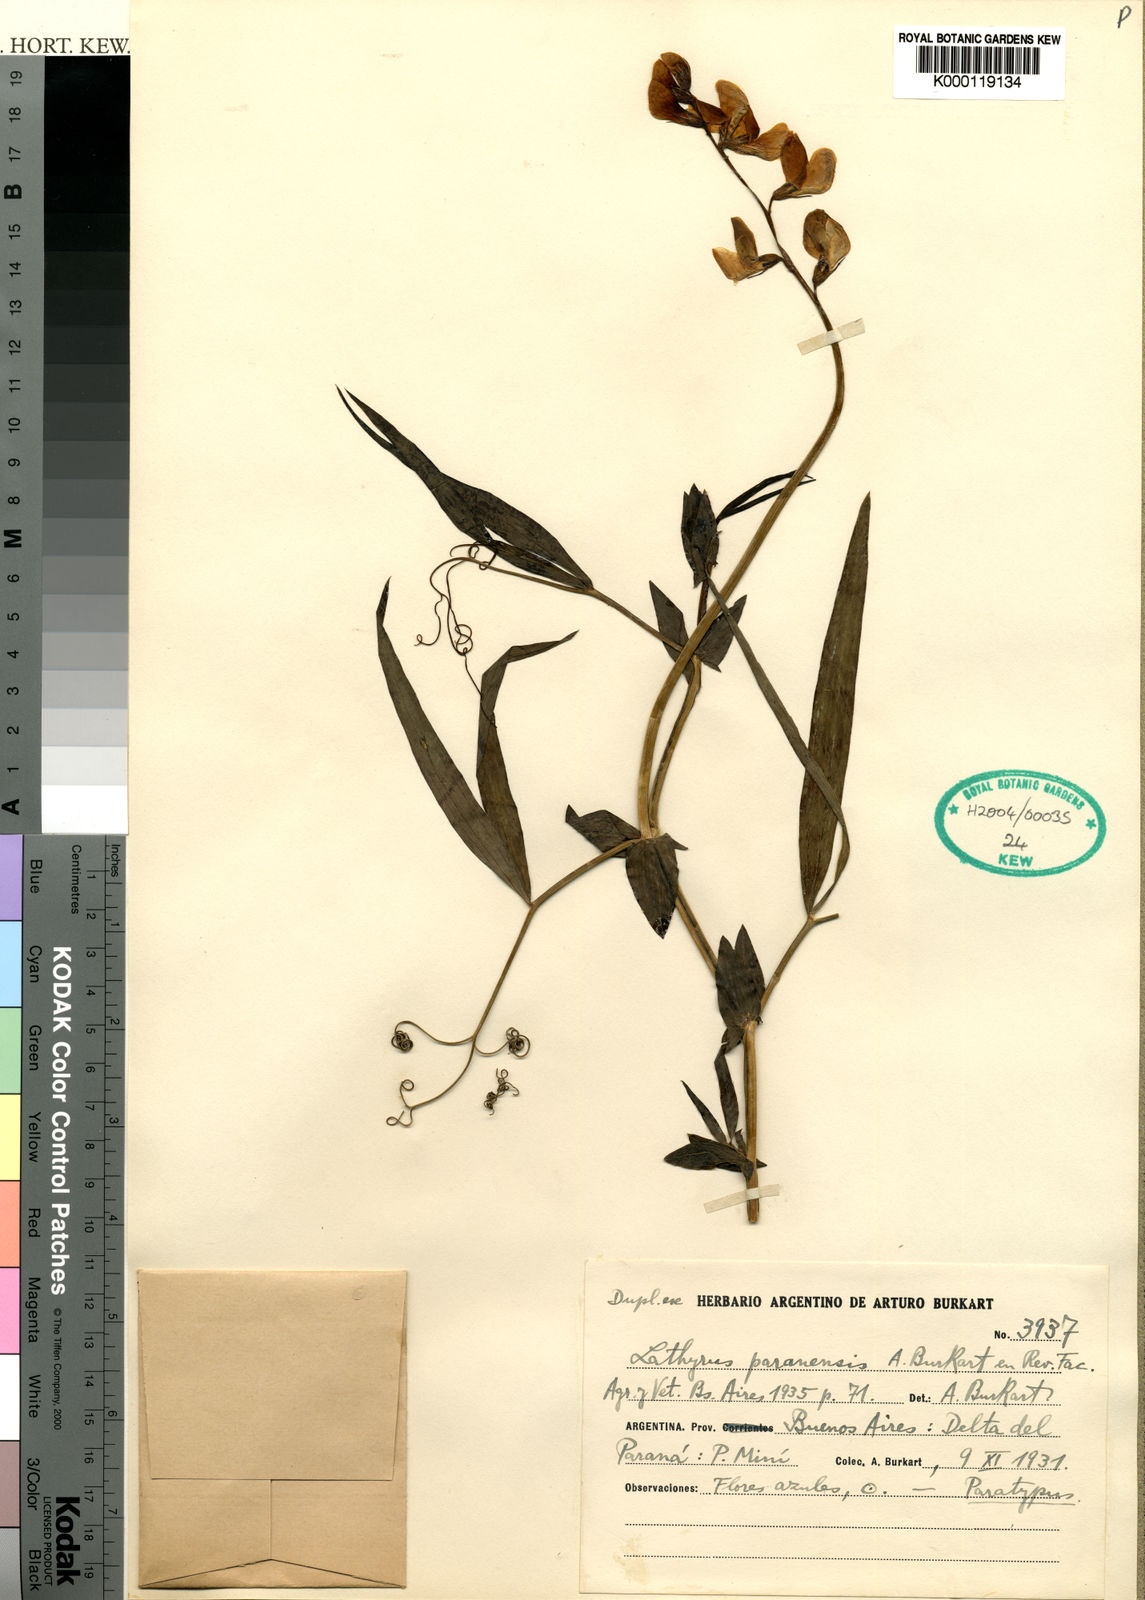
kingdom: Plantae
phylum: Tracheophyta
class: Magnoliopsida
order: Fabales
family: Fabaceae
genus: Lathyrus
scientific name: Lathyrus paranensis
